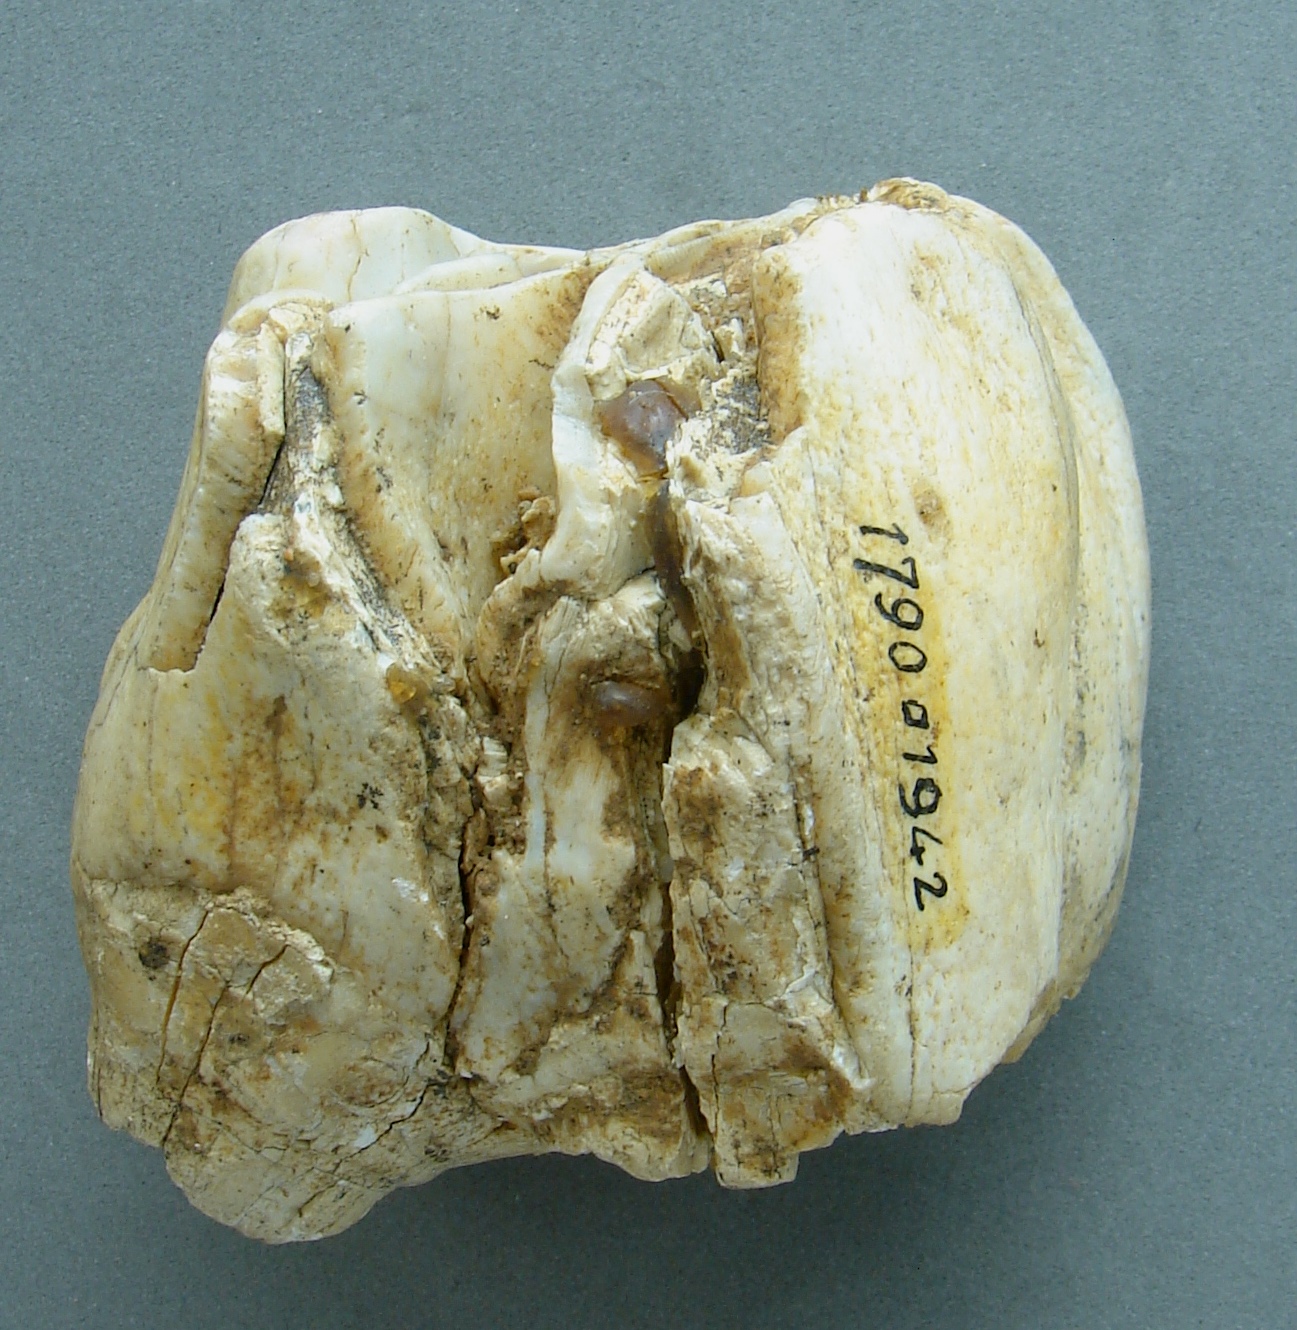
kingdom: Animalia
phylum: Chordata
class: Mammalia
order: Perissodactyla
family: Rhinocerotidae
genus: Rhinoceros
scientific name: Rhinoceros
